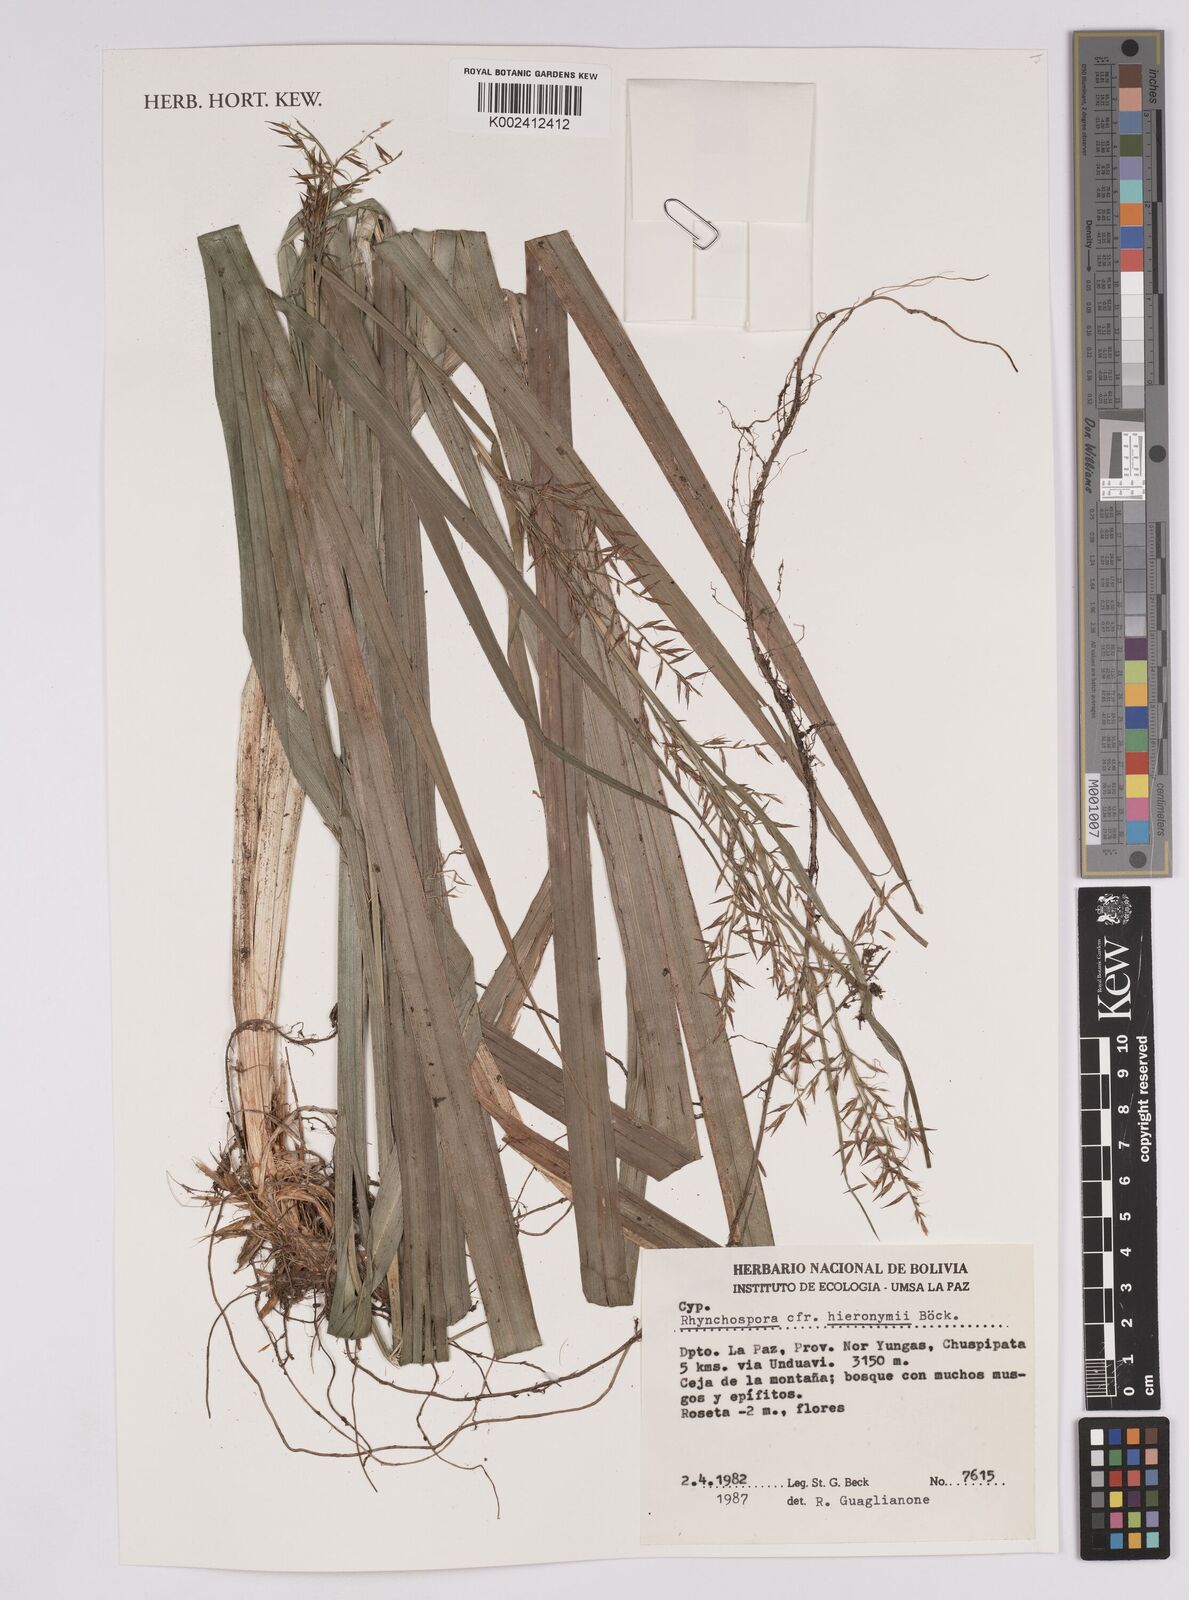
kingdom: Plantae
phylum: Tracheophyta
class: Liliopsida
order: Poales
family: Cyperaceae
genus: Rhynchospora
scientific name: Rhynchospora hieronymi
